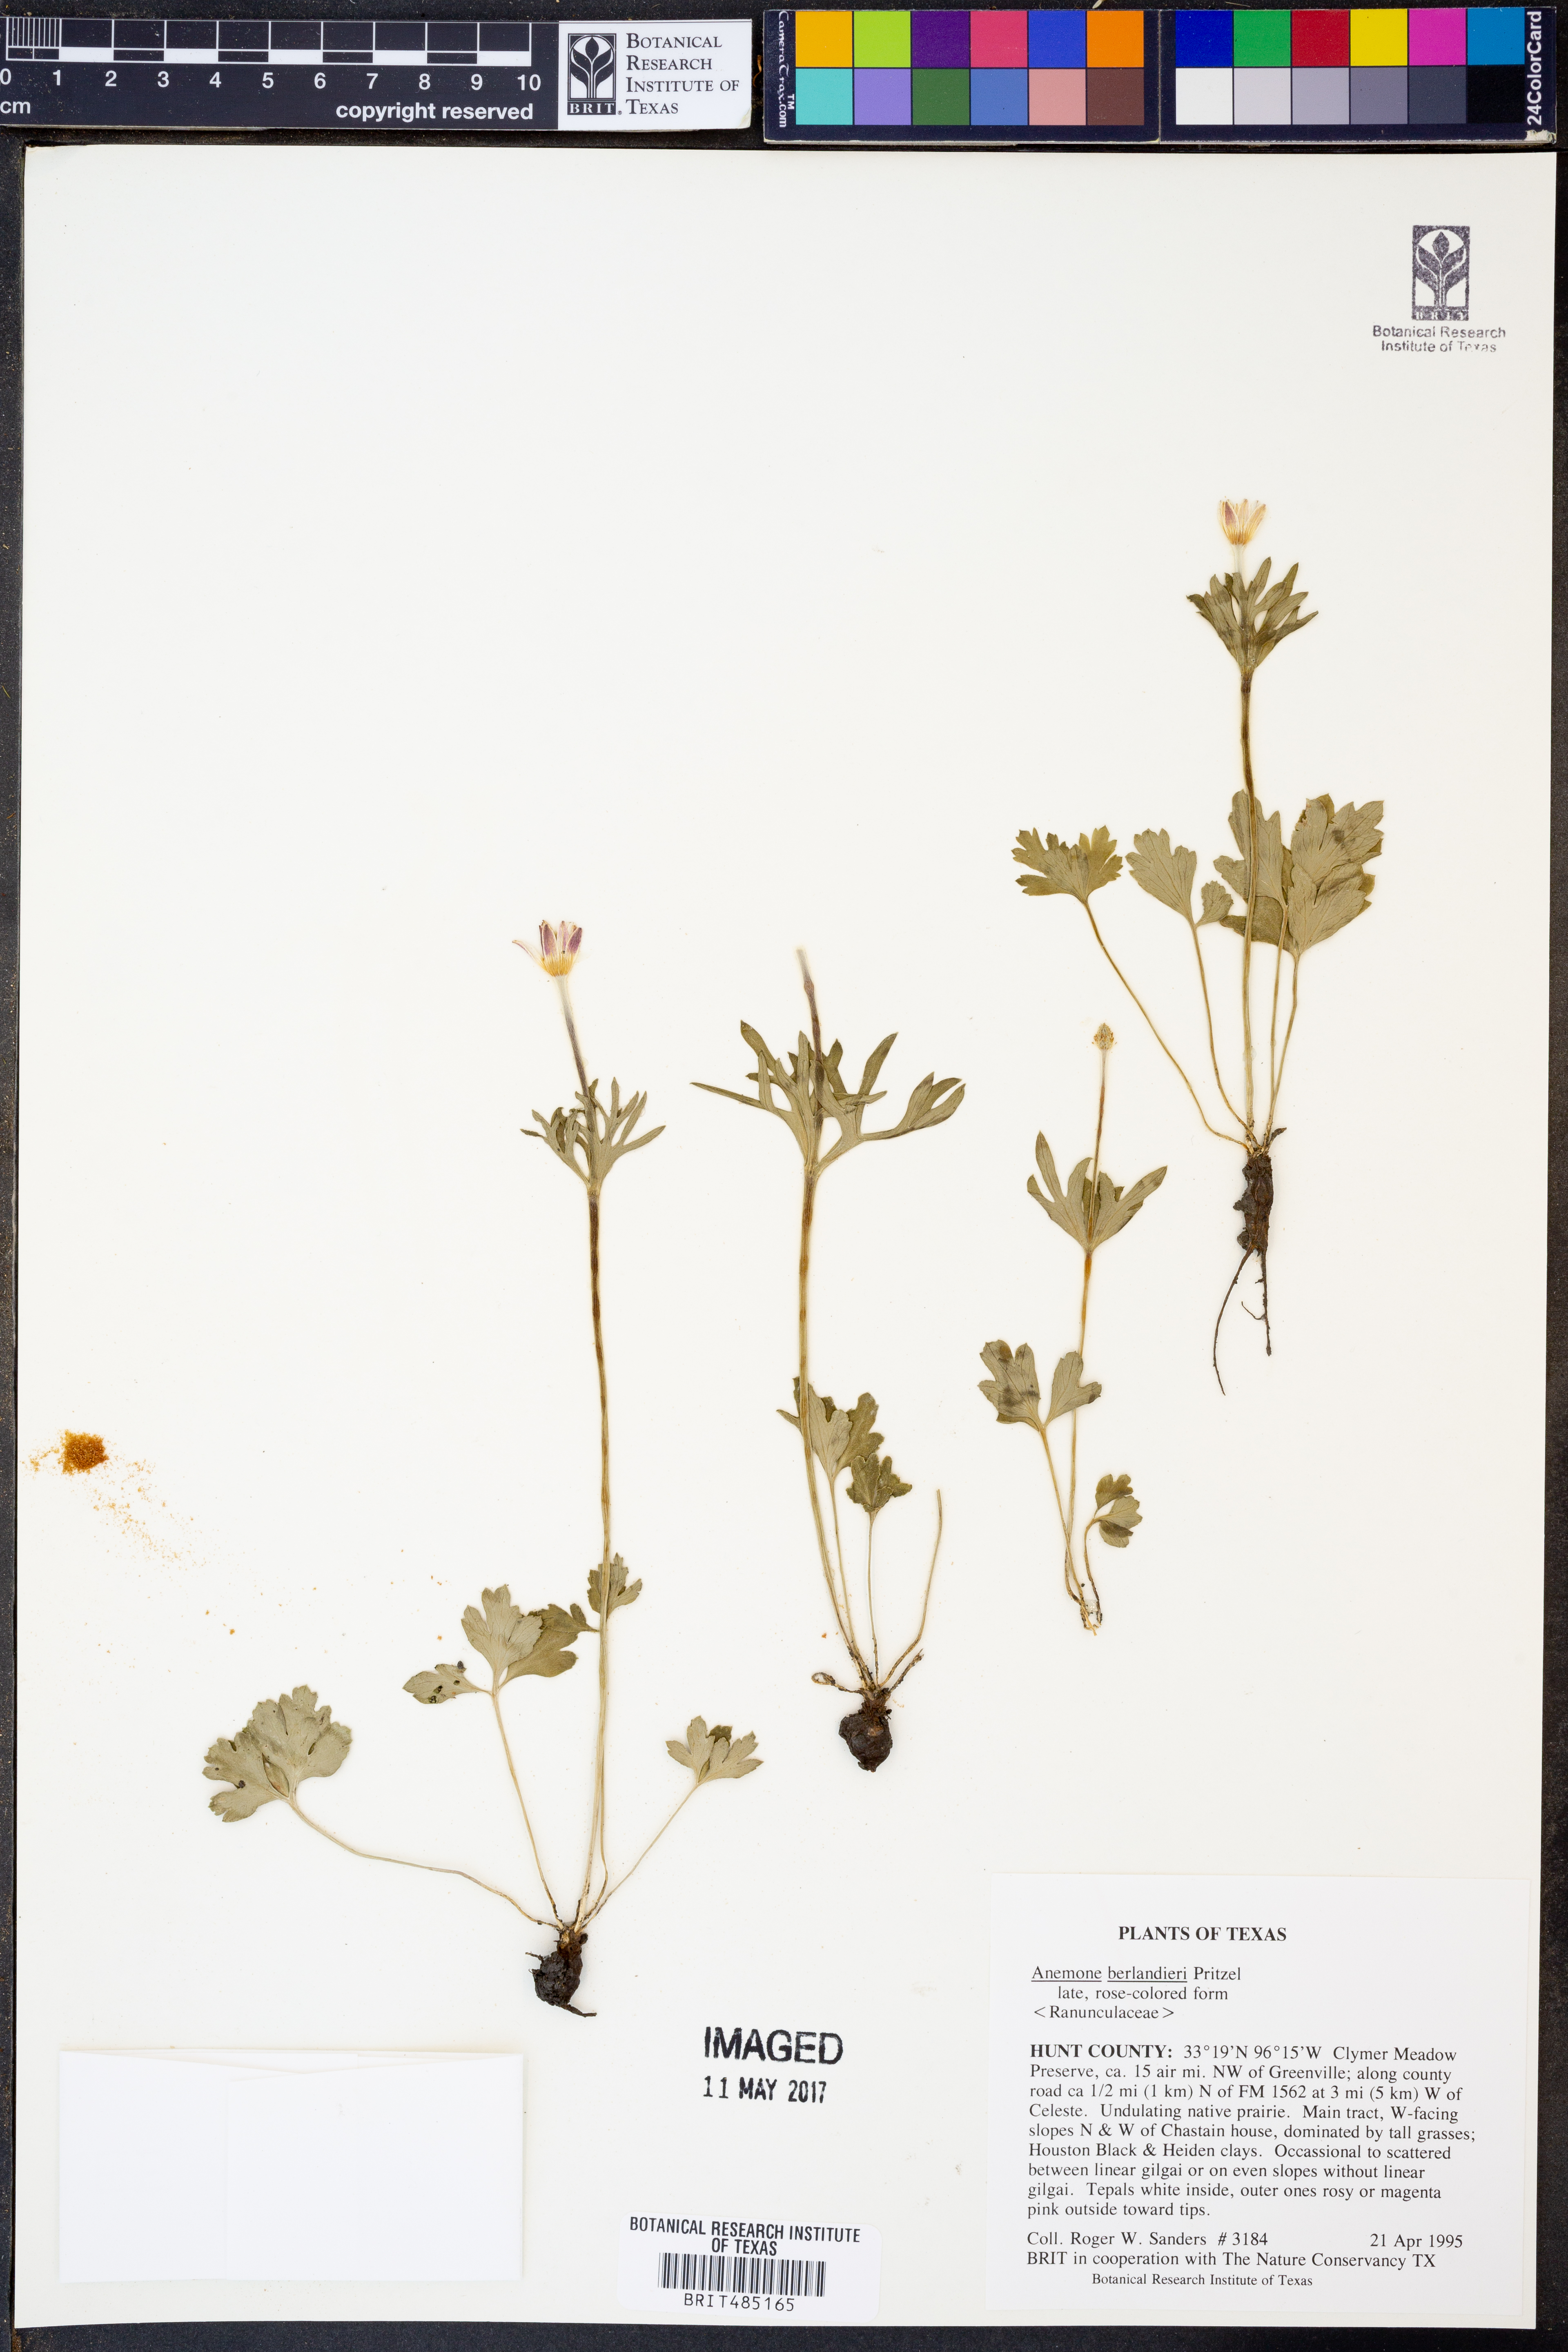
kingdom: Plantae
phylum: Tracheophyta
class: Magnoliopsida
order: Ranunculales
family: Ranunculaceae
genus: Anemone
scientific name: Anemone berlandieri
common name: Ten-petal anemone
